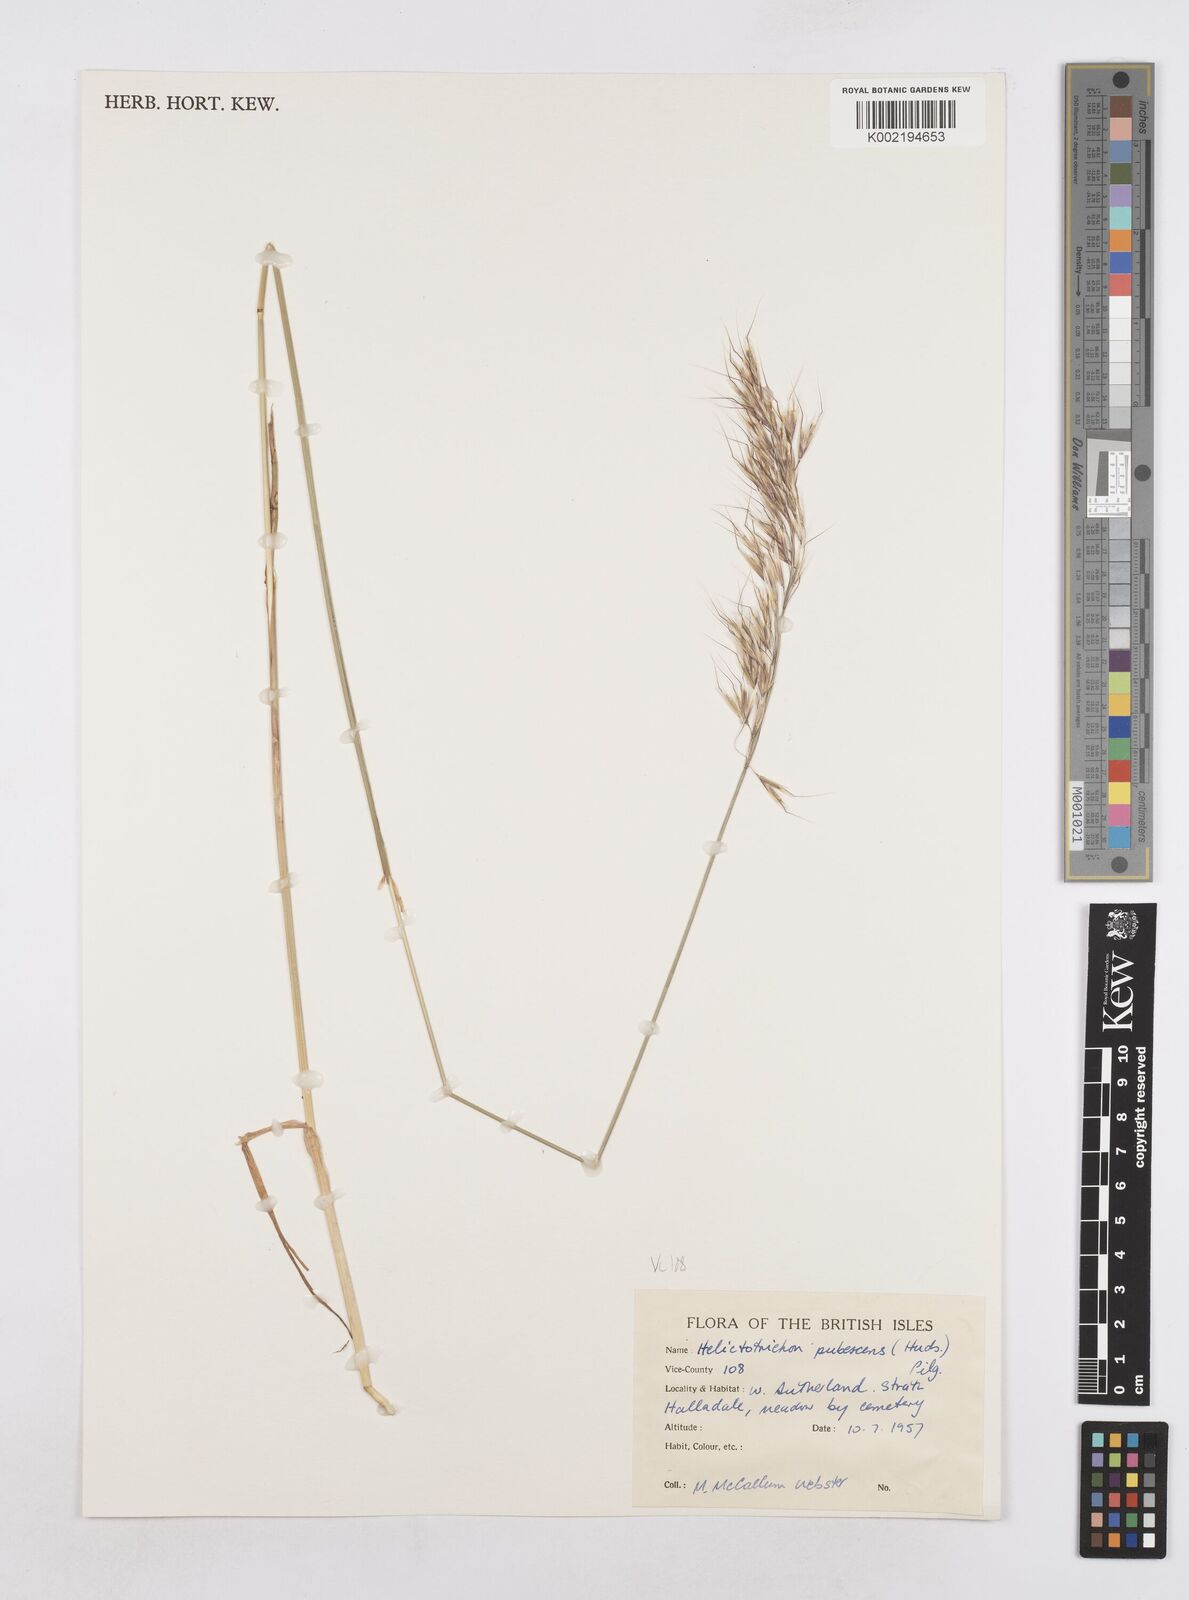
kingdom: Plantae
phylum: Tracheophyta
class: Liliopsida
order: Poales
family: Poaceae
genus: Avenula
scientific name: Avenula pubescens
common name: Downy alpine oatgrass
